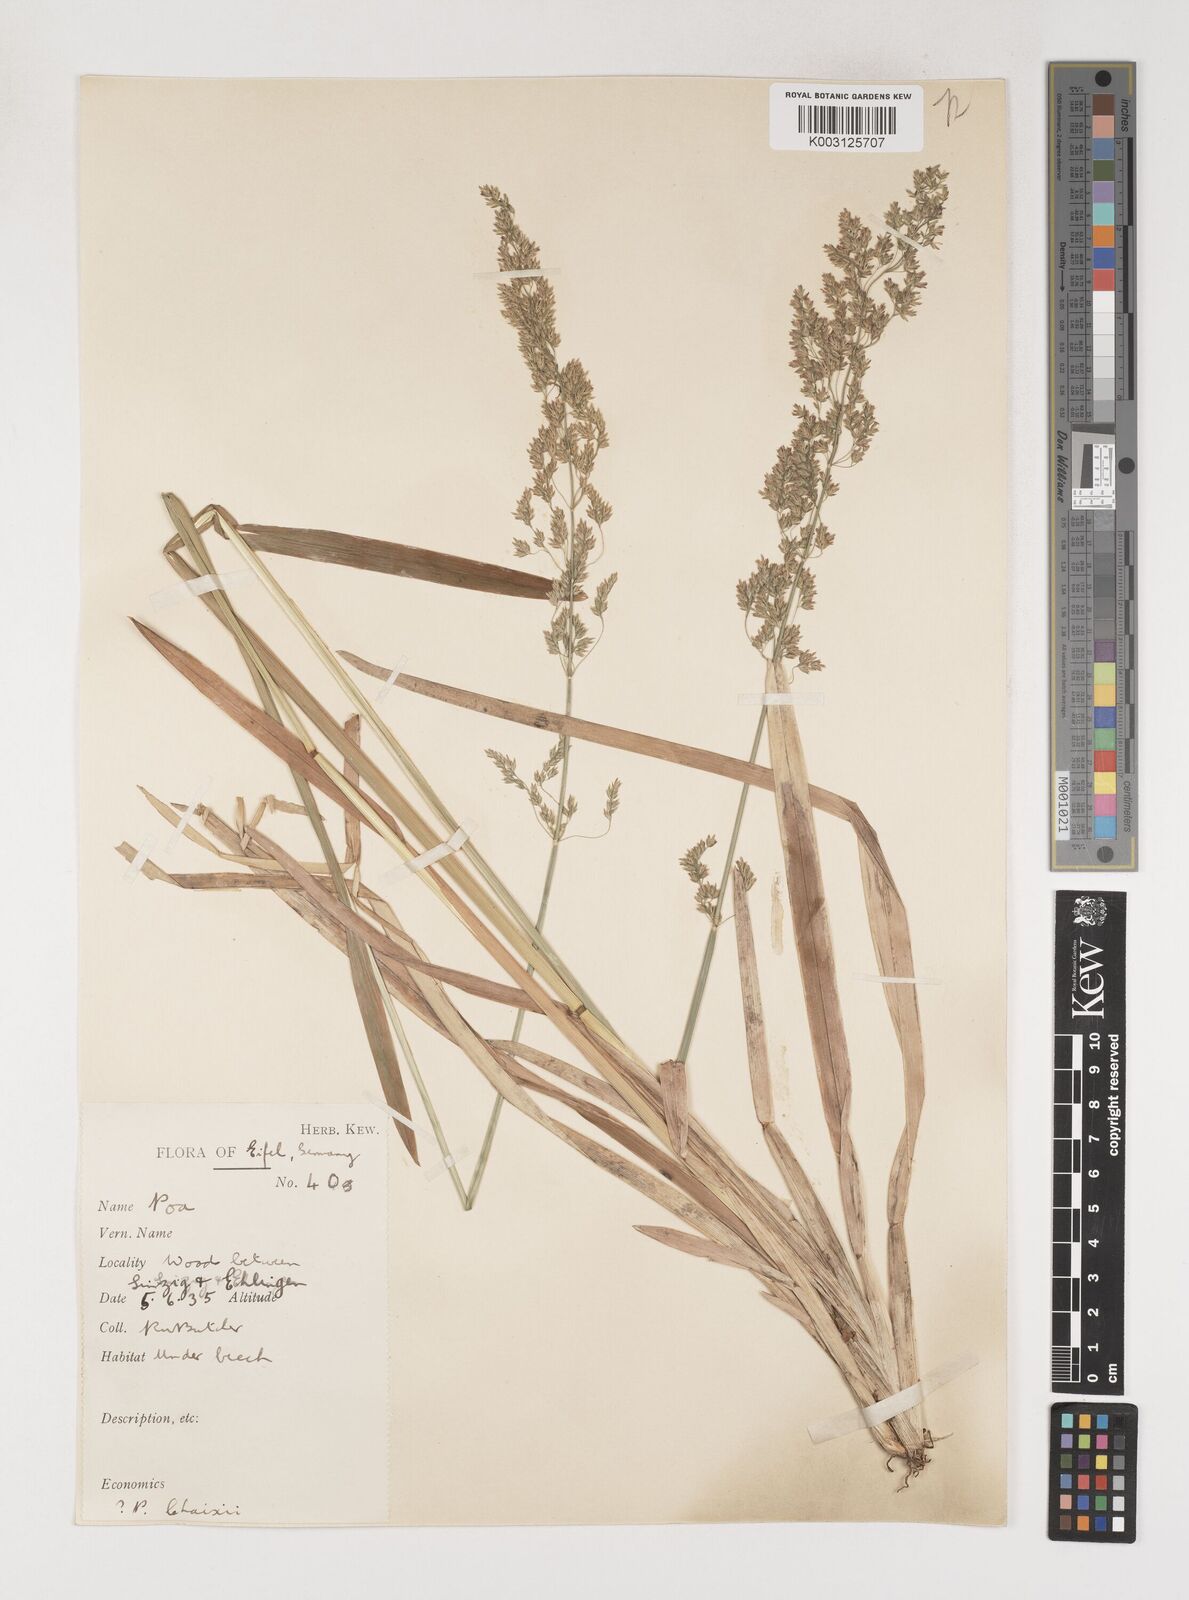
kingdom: Plantae
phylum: Tracheophyta
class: Liliopsida
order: Poales
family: Poaceae
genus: Poa
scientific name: Poa chaixii
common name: Broad-leaved meadow-grass
